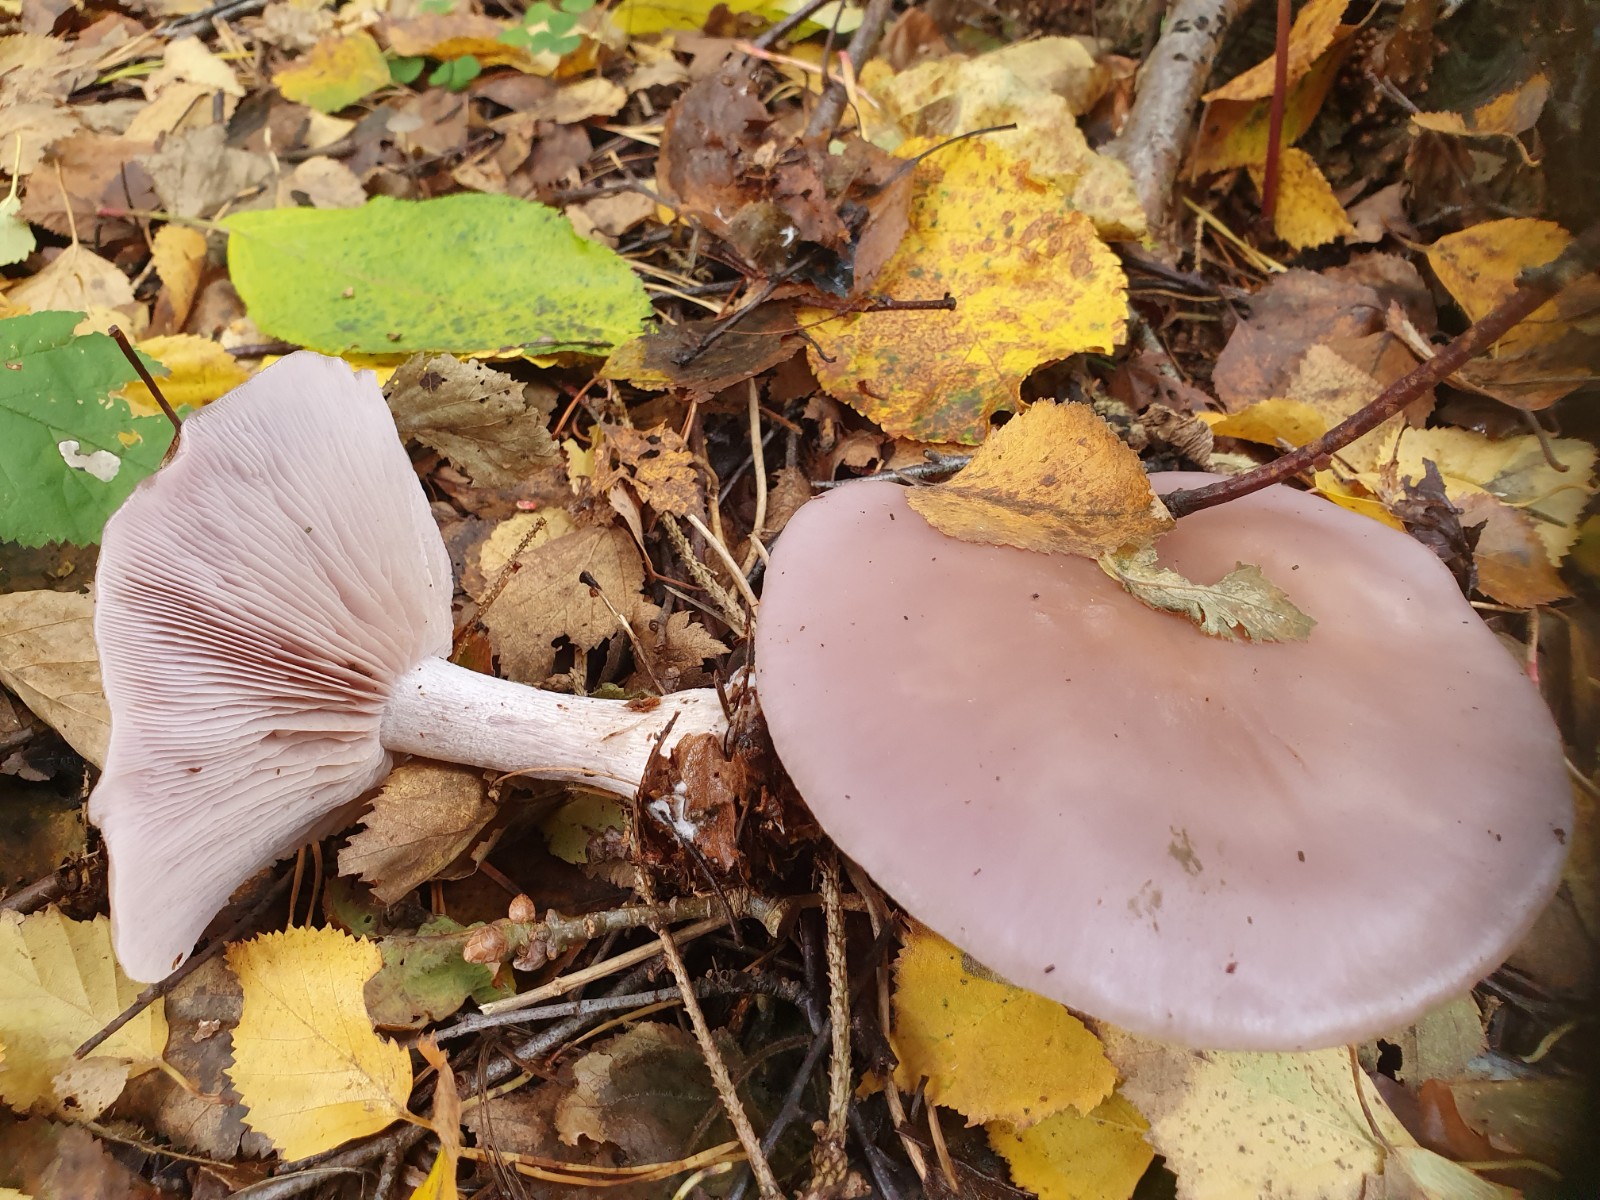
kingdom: Fungi
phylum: Basidiomycota
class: Agaricomycetes
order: Agaricales
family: Tricholomataceae
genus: Lepista
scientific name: Lepista nuda
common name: violet hekseringshat
